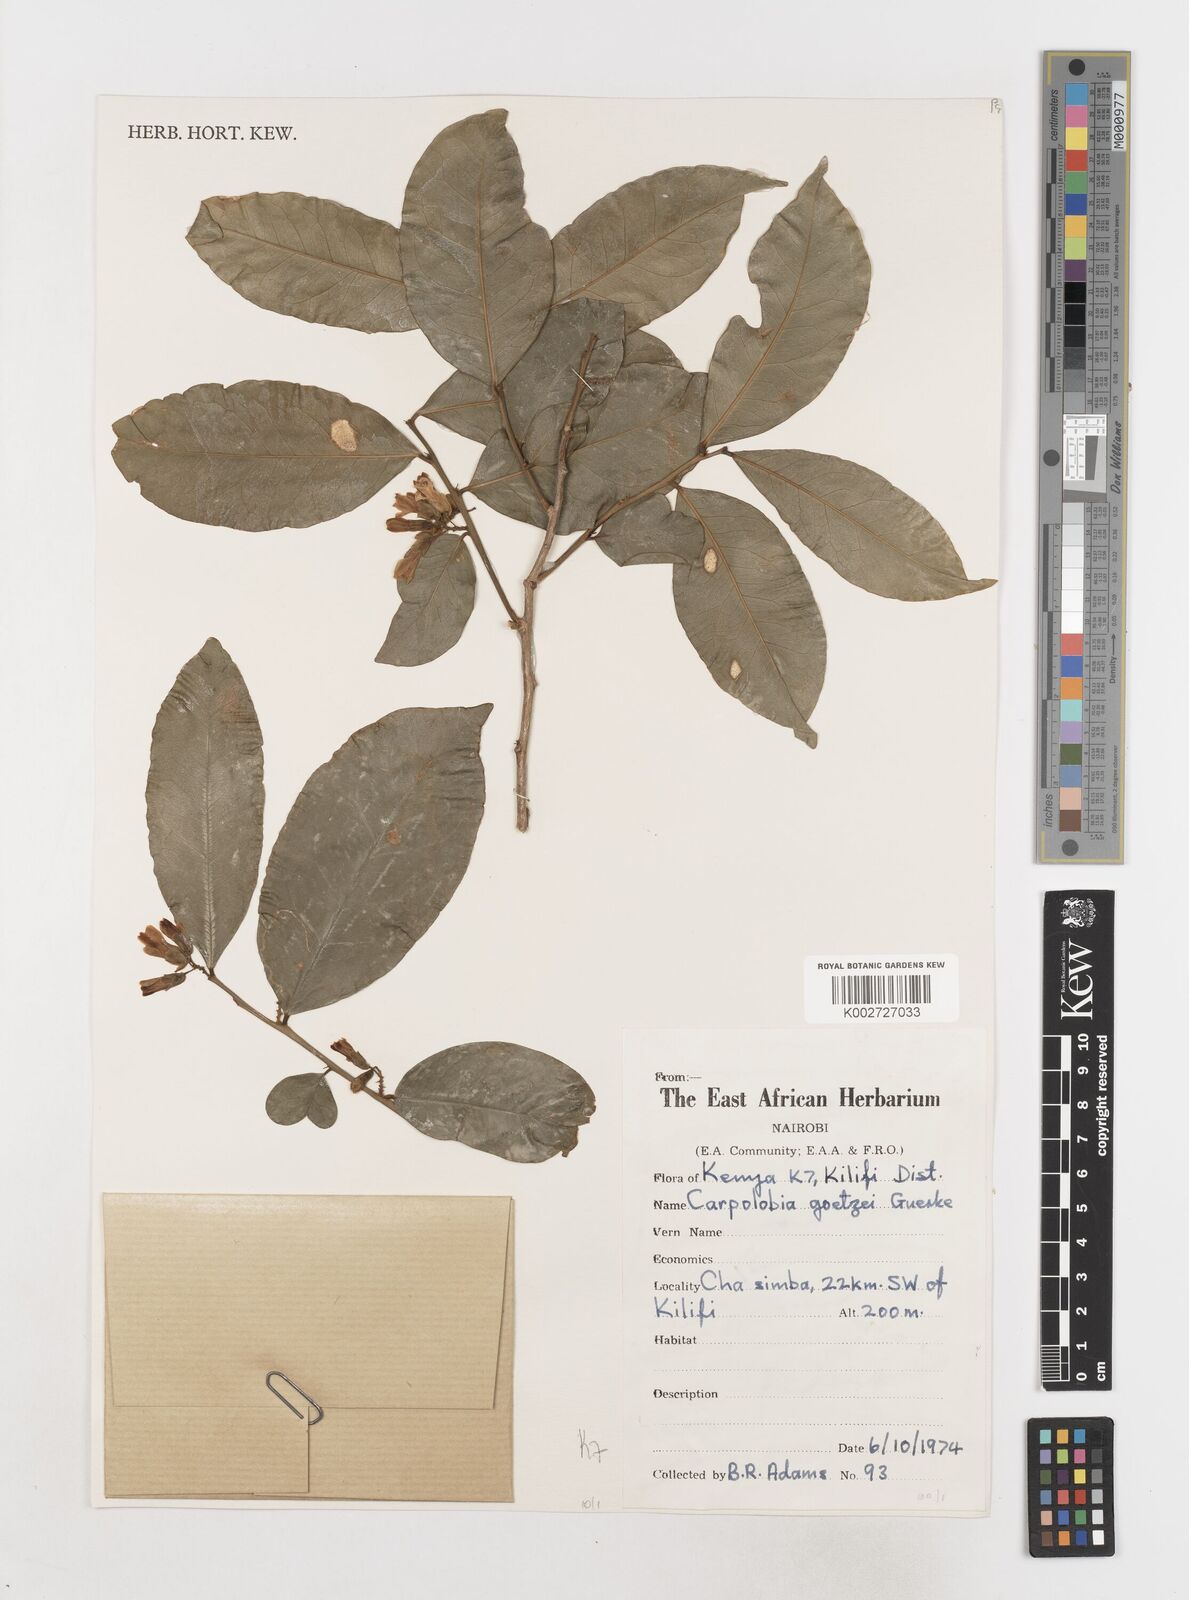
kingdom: Plantae
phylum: Tracheophyta
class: Magnoliopsida
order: Fabales
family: Polygalaceae
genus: Carpolobia
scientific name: Carpolobia goetzei
